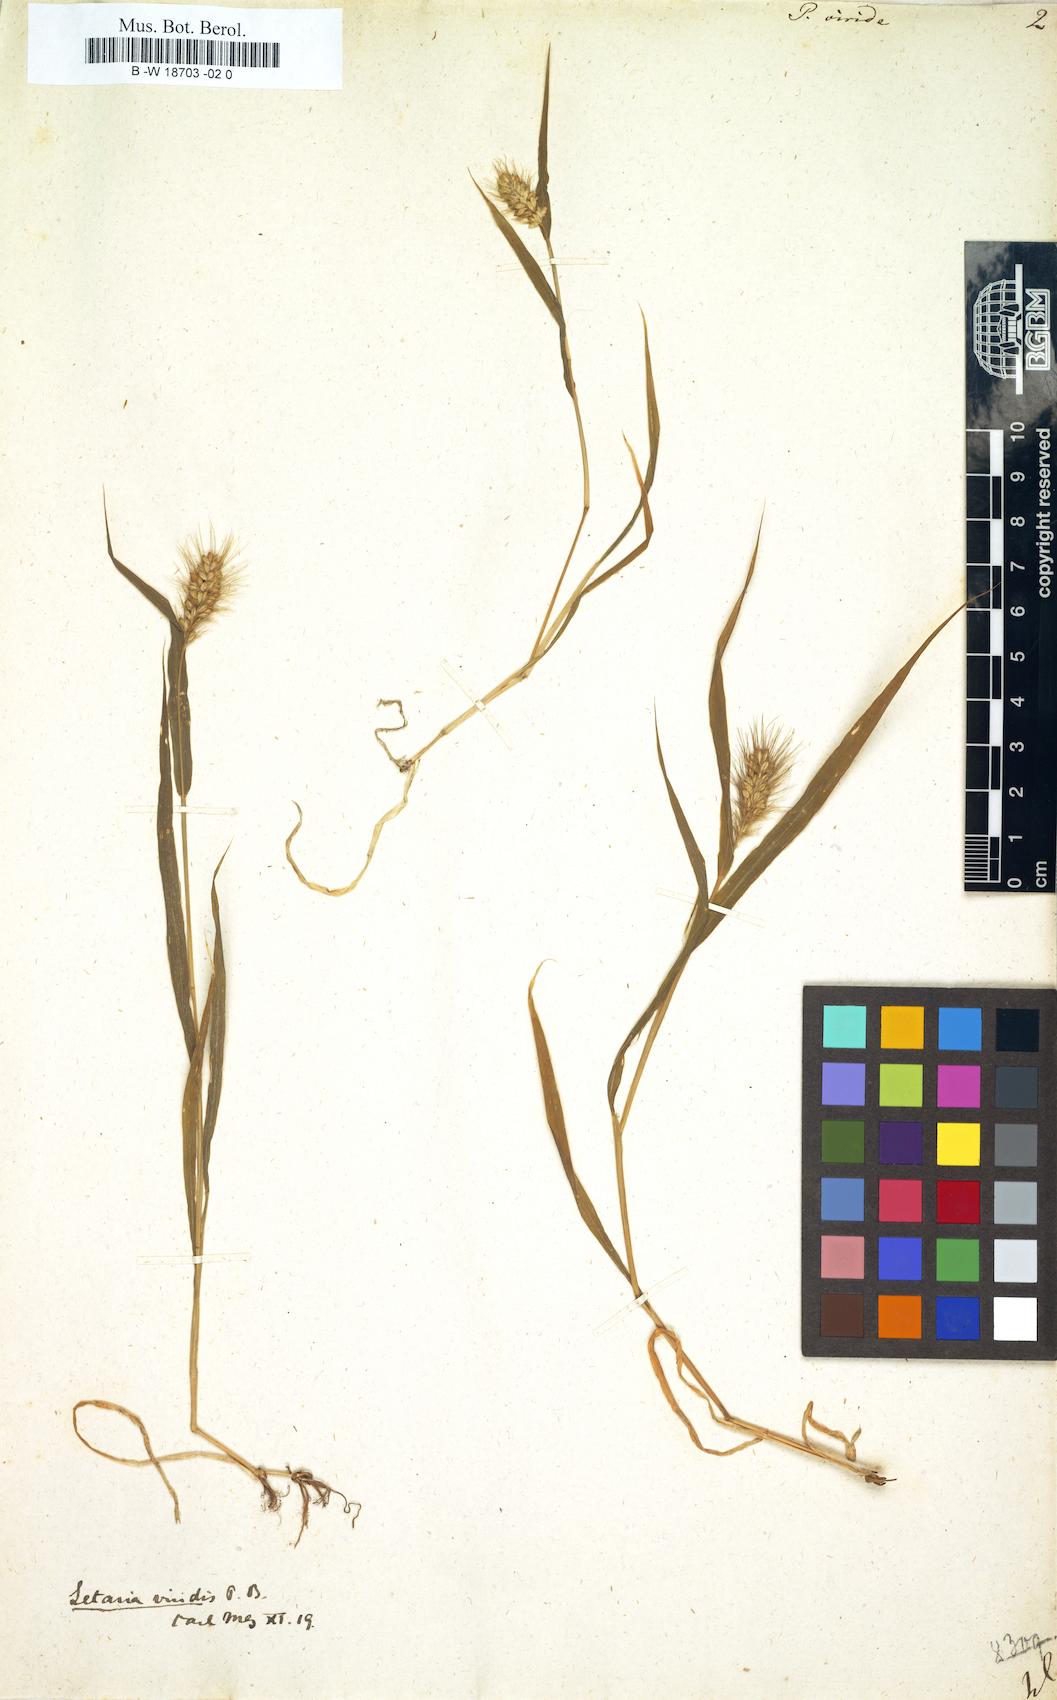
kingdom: Plantae
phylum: Tracheophyta
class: Liliopsida
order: Poales
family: Poaceae
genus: Setaria
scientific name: Setaria viridis
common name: Green bristlegrass
